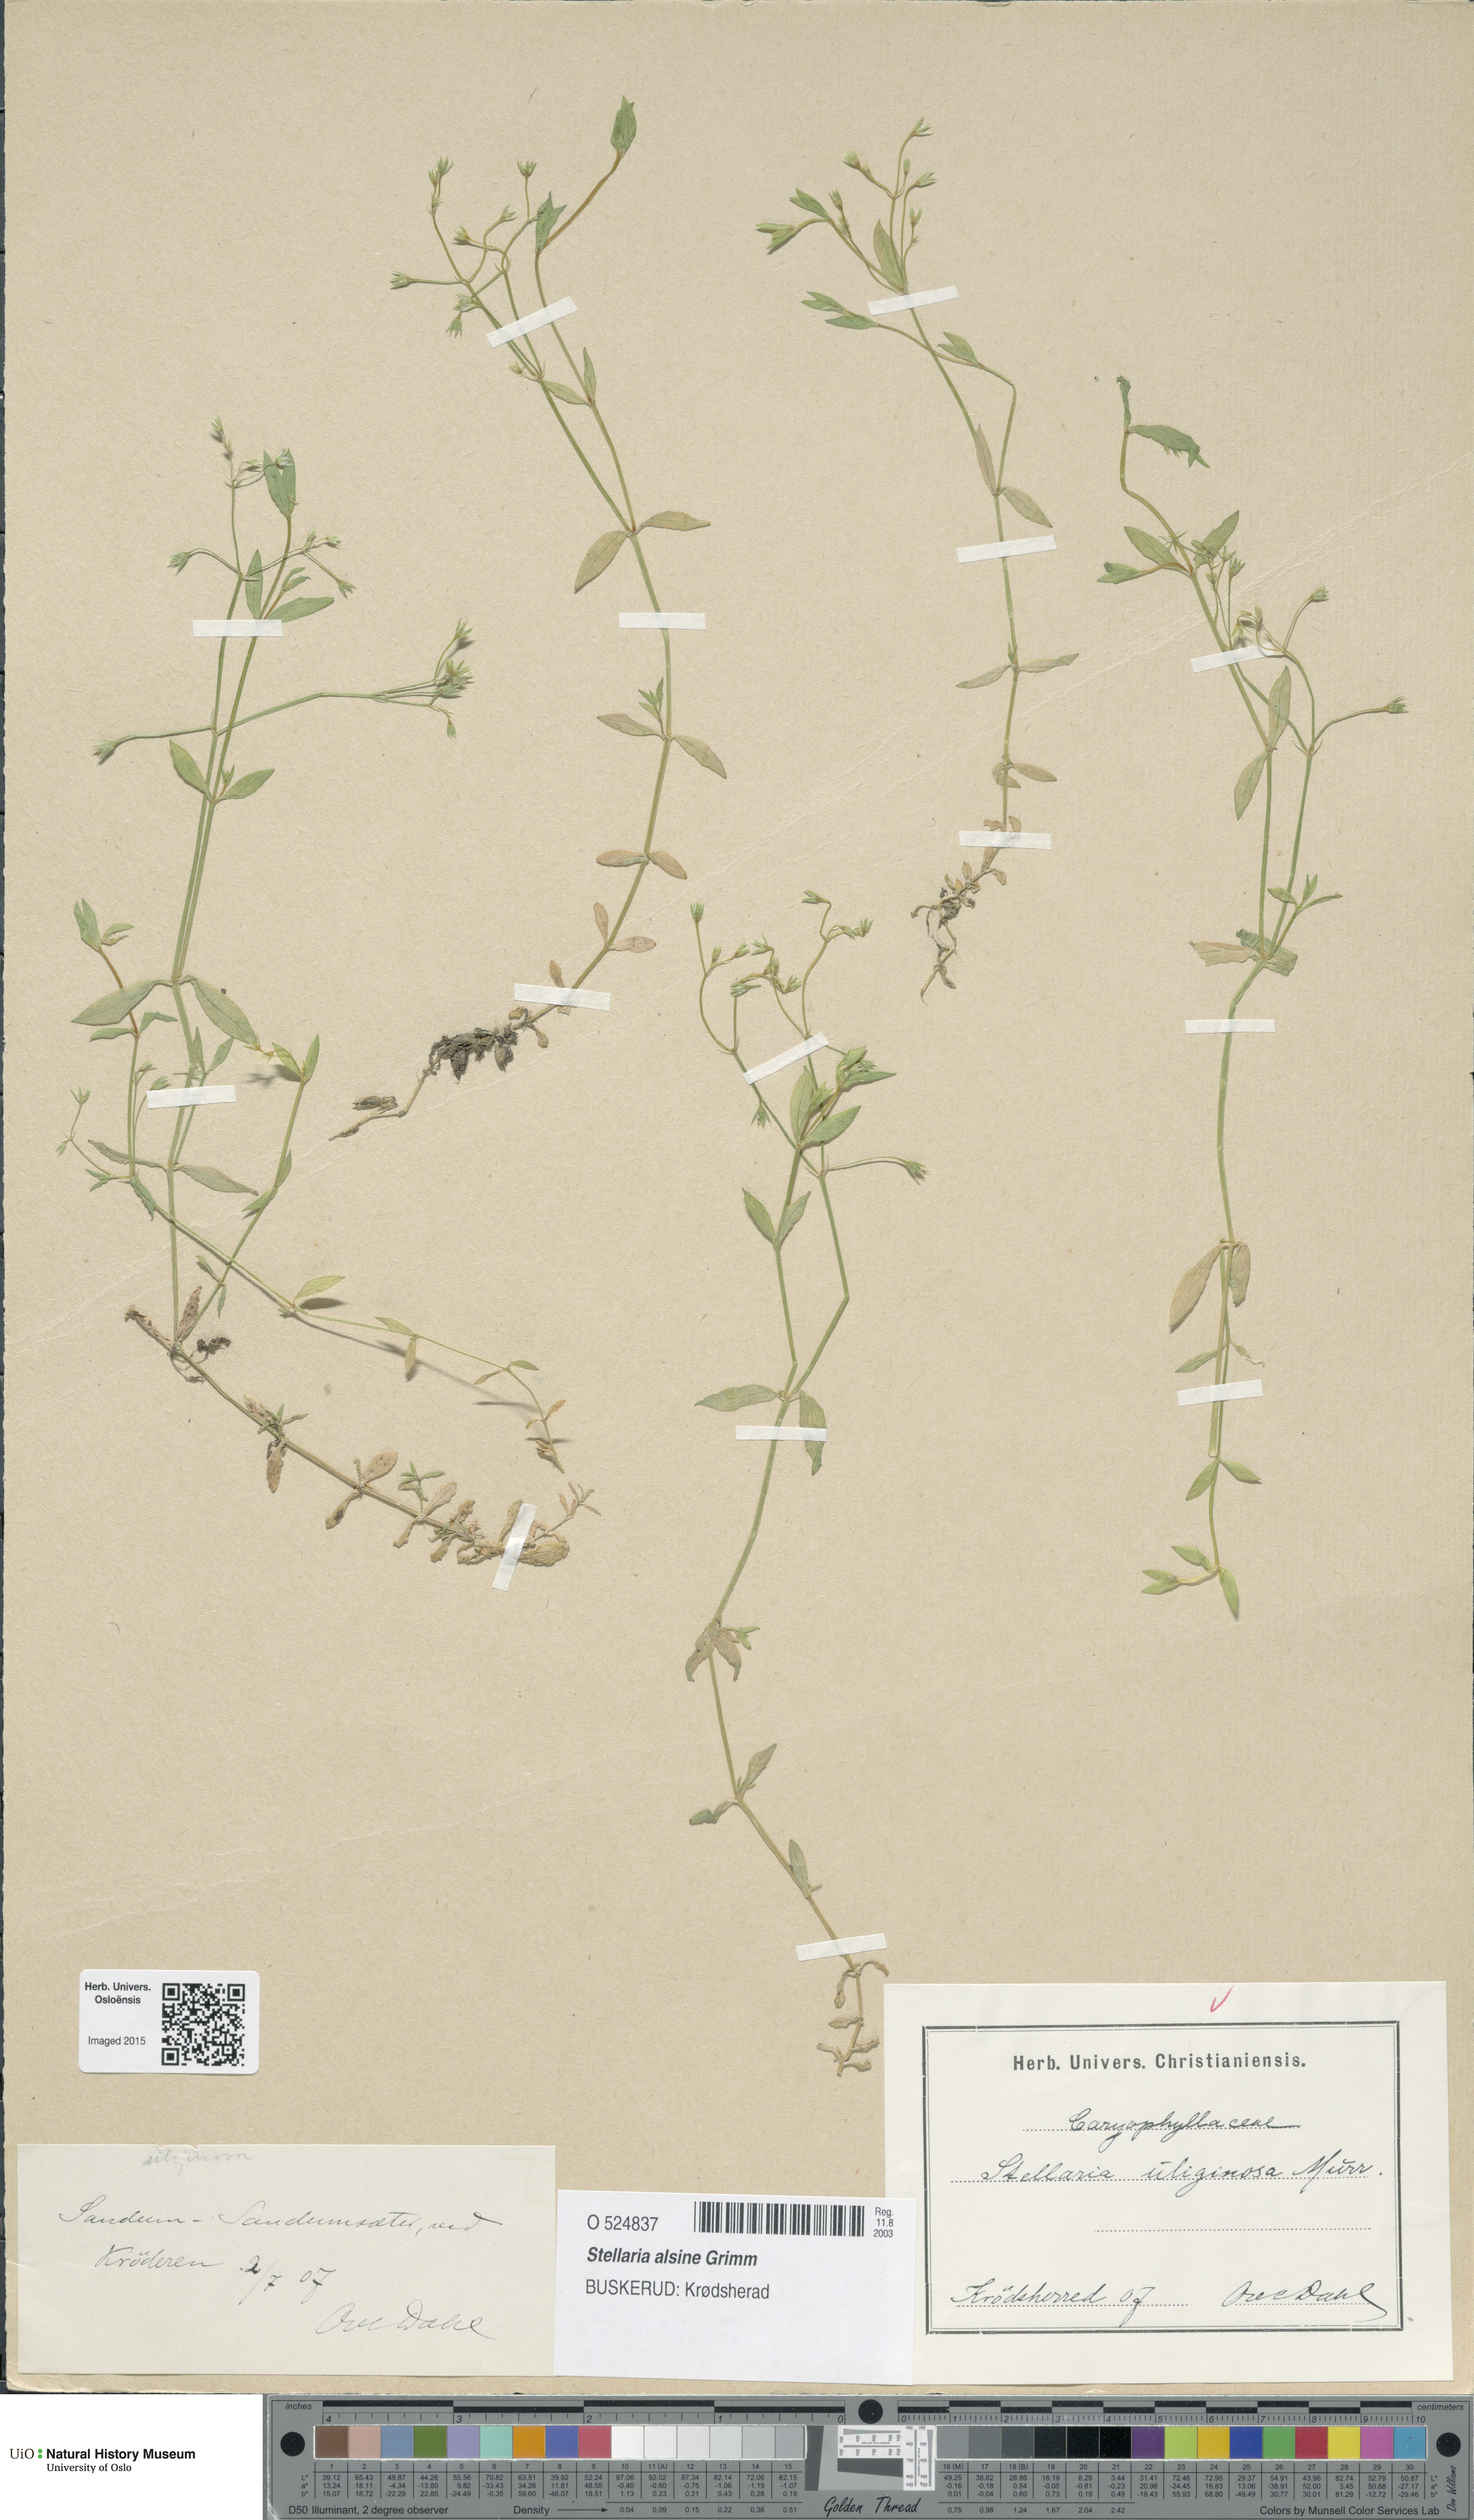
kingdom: Plantae
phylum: Tracheophyta
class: Magnoliopsida
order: Caryophyllales
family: Caryophyllaceae
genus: Stellaria
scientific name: Stellaria alsine
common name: Bog stitchwort
